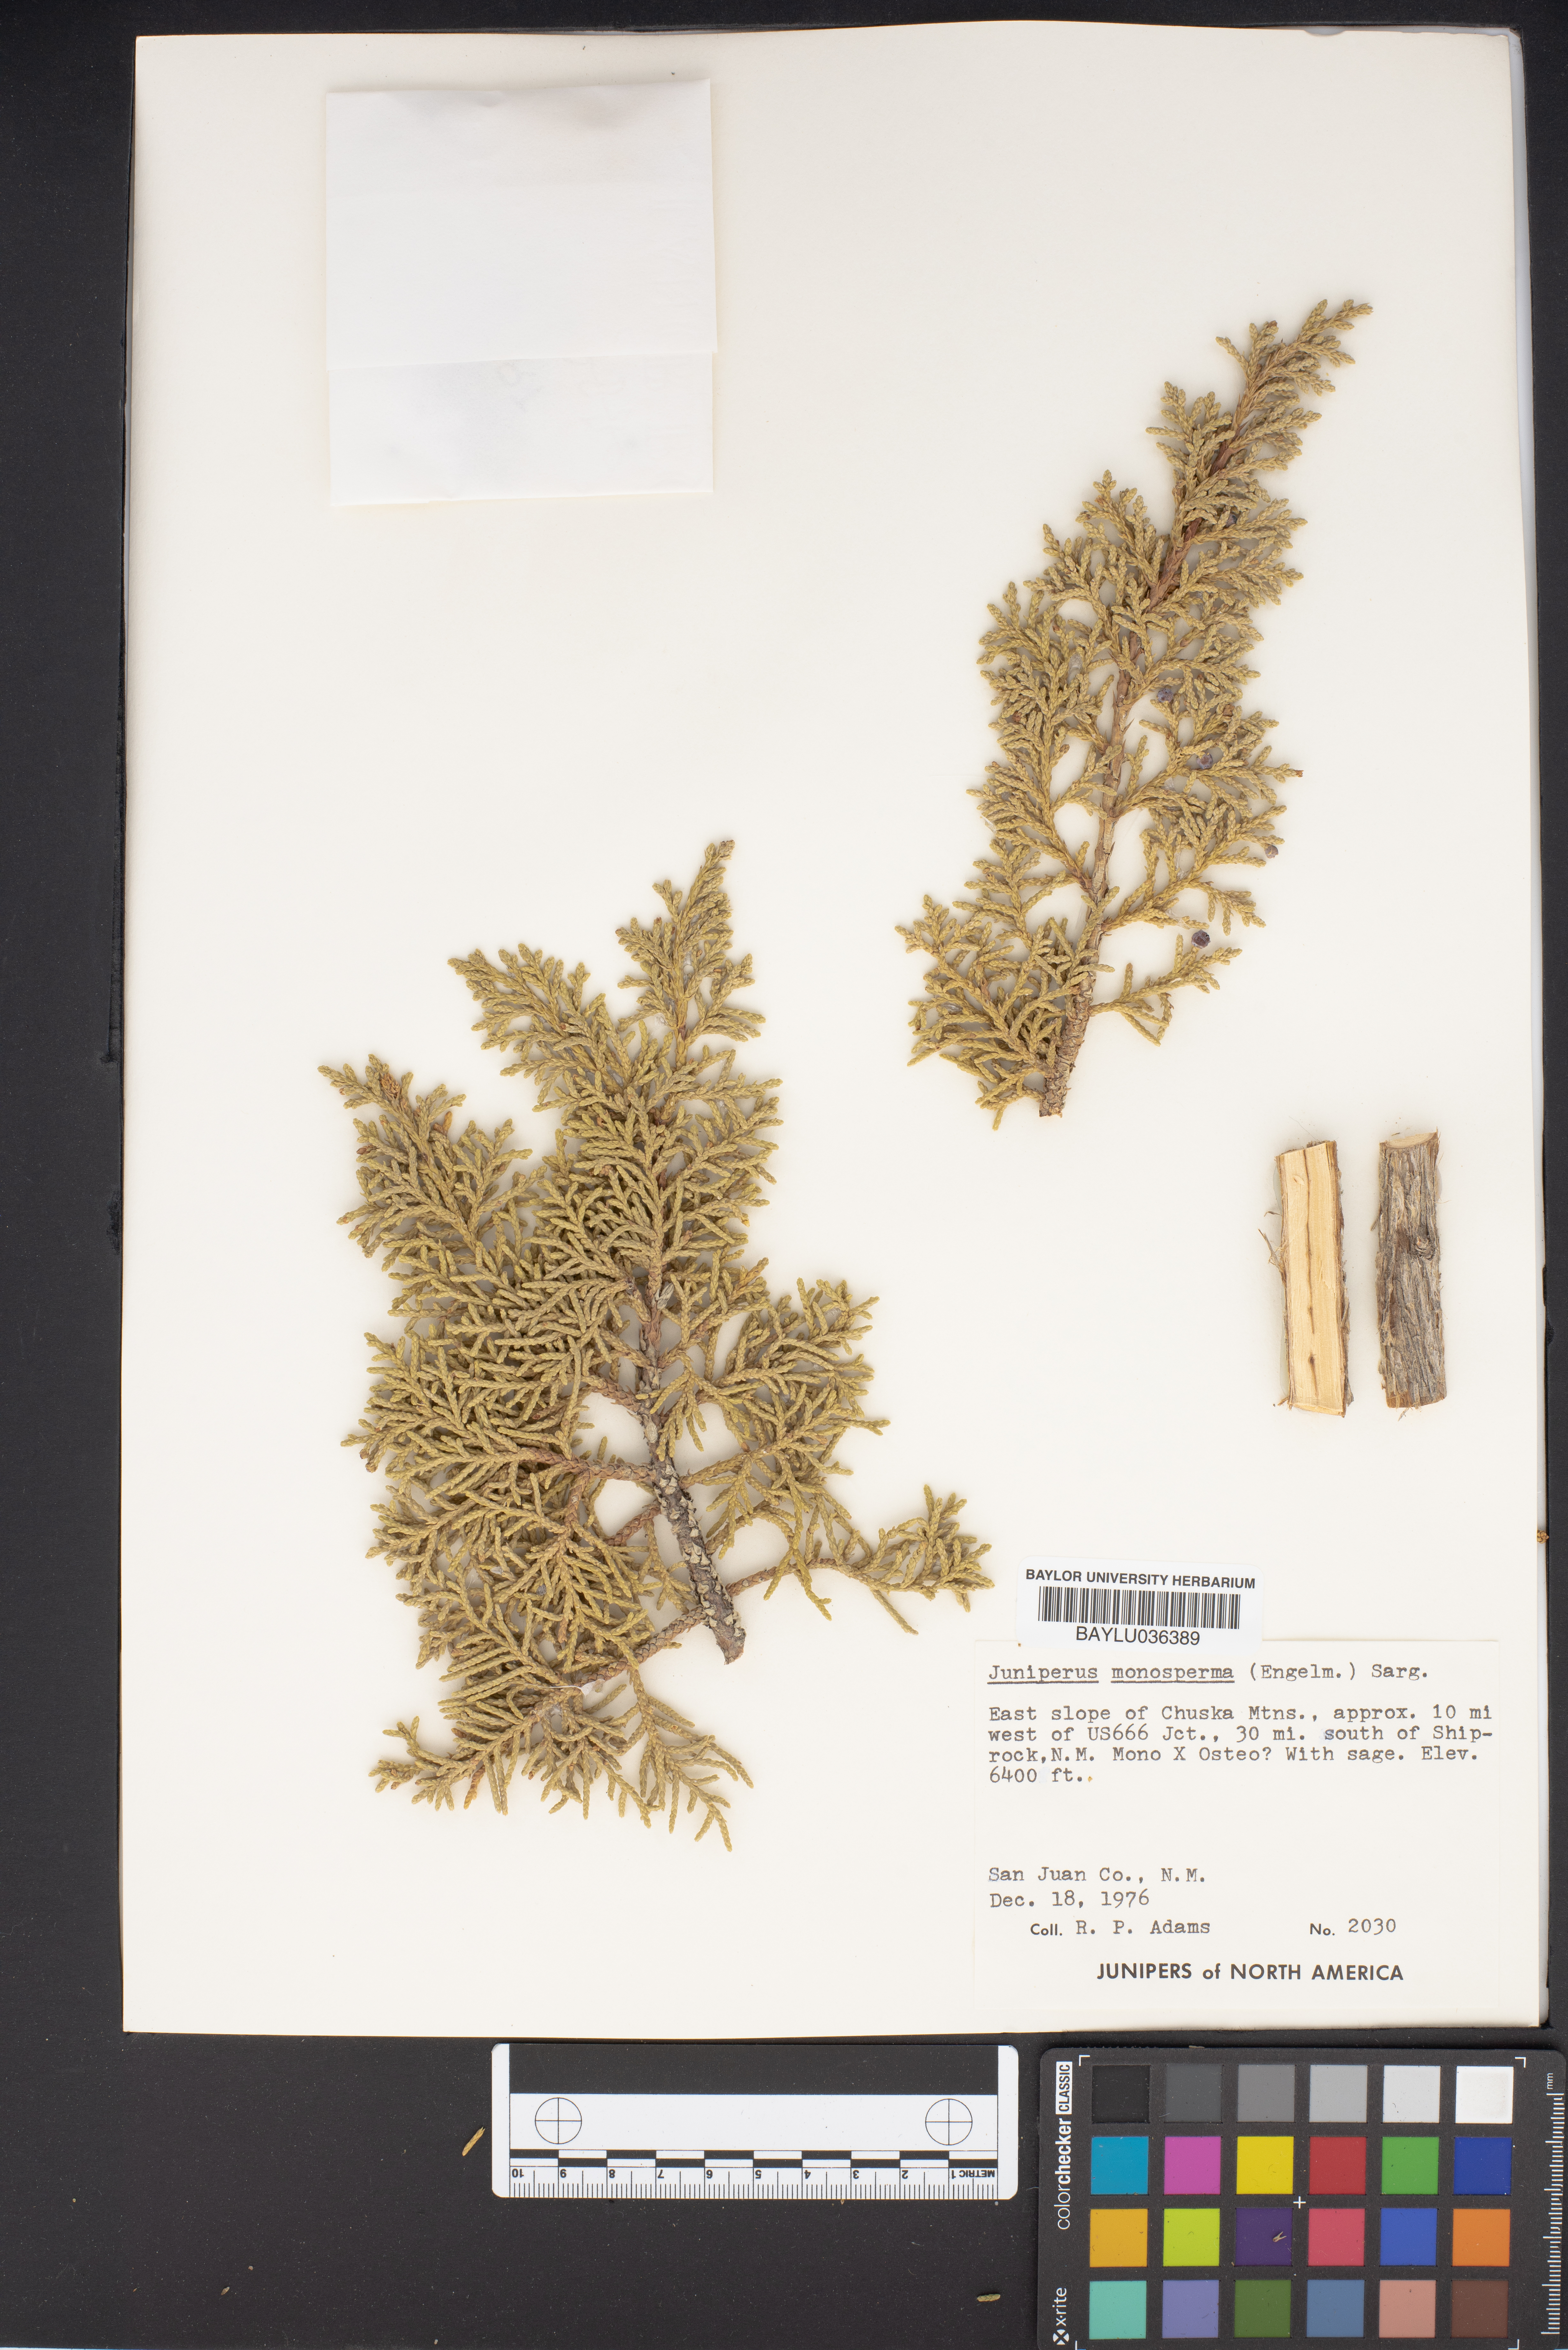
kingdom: Plantae
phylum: Tracheophyta
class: Pinopsida
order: Pinales
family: Cupressaceae
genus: Juniperus
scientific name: Juniperus monosperma
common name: One-seed juniper
